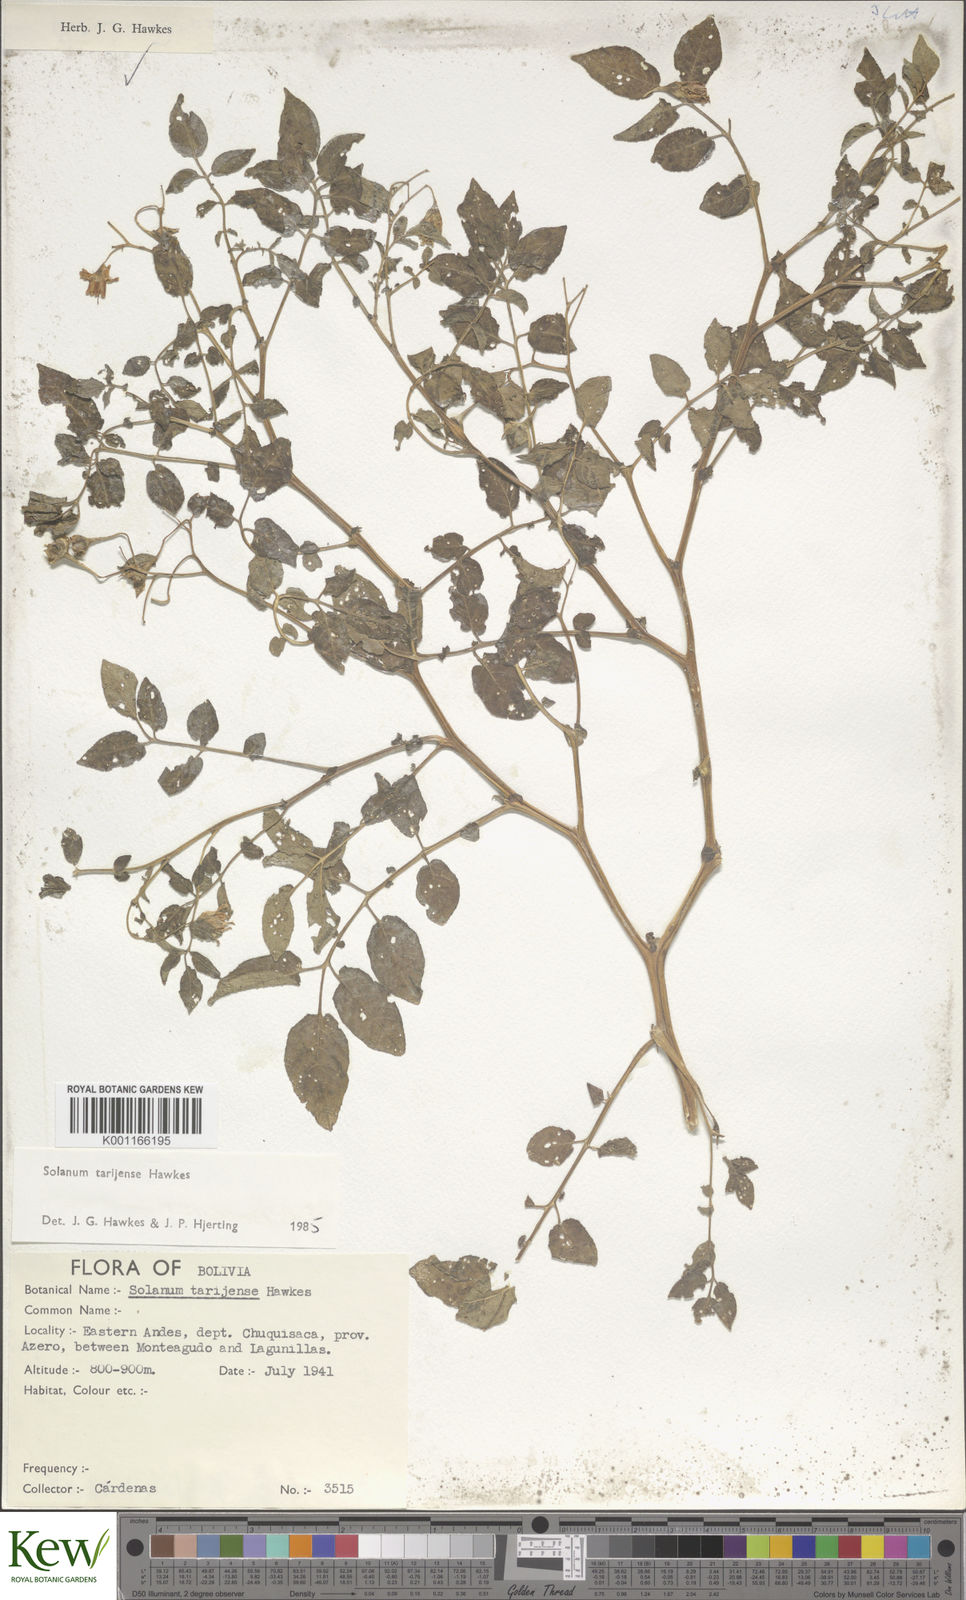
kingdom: Plantae
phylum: Tracheophyta
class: Magnoliopsida
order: Solanales
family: Solanaceae
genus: Solanum
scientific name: Solanum tarijense
